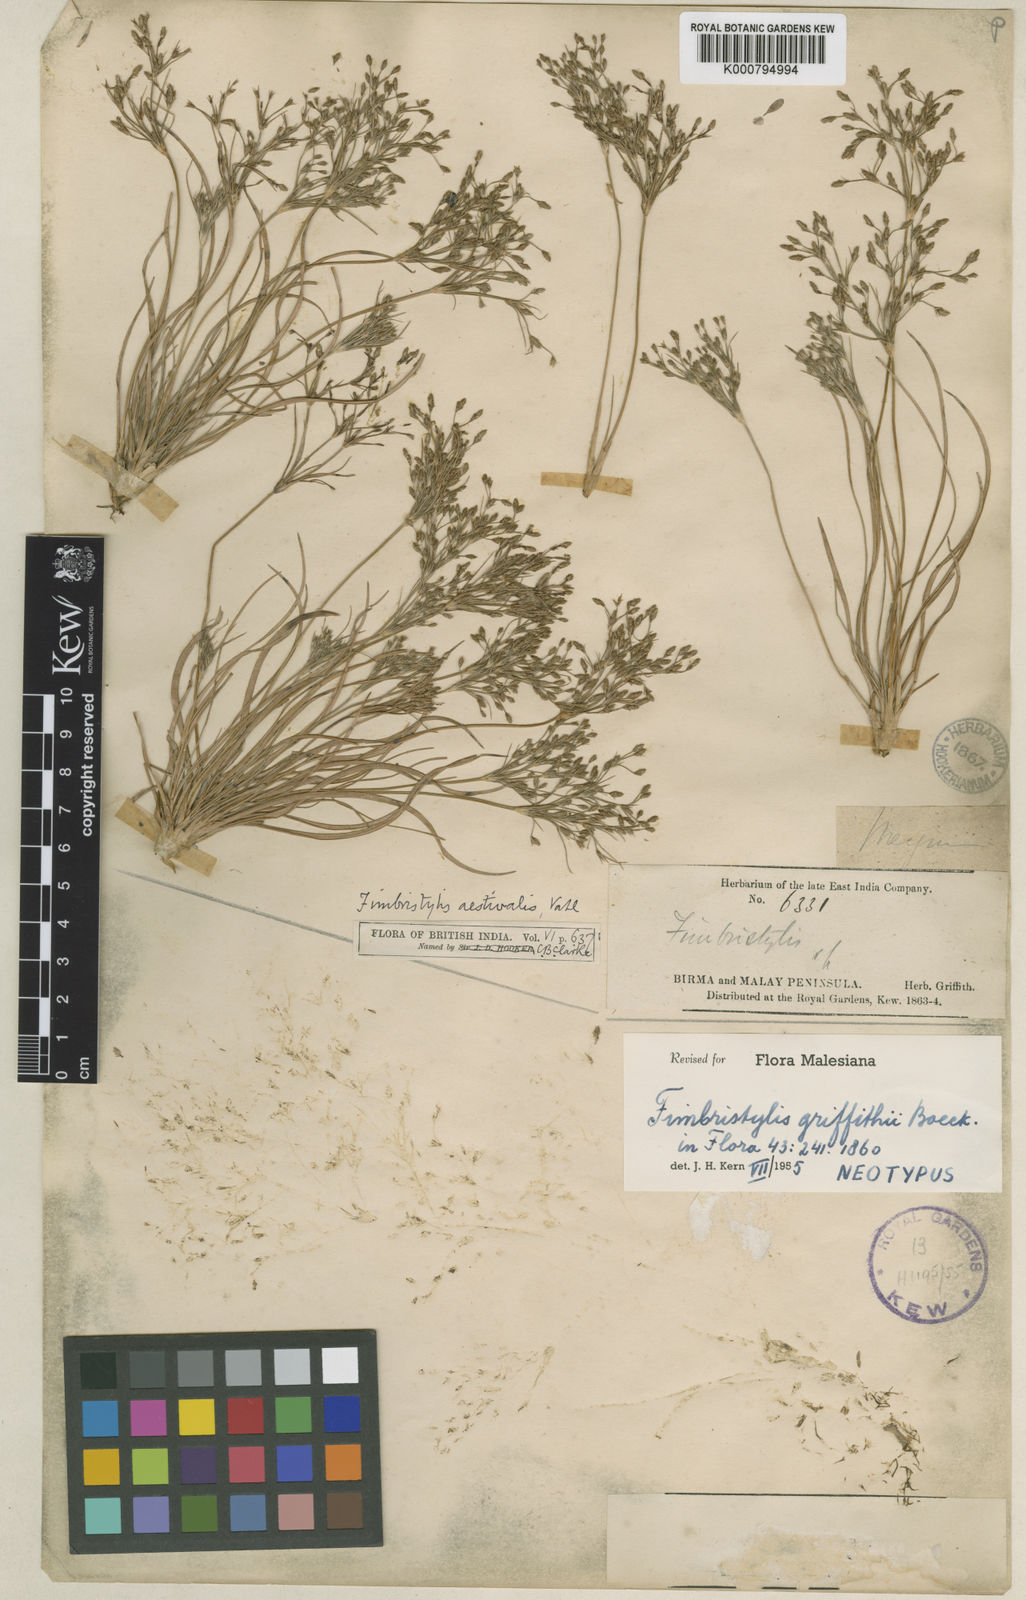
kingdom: Plantae
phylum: Tracheophyta
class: Liliopsida
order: Poales
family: Cyperaceae
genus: Fimbristylis
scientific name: Fimbristylis griffithii
